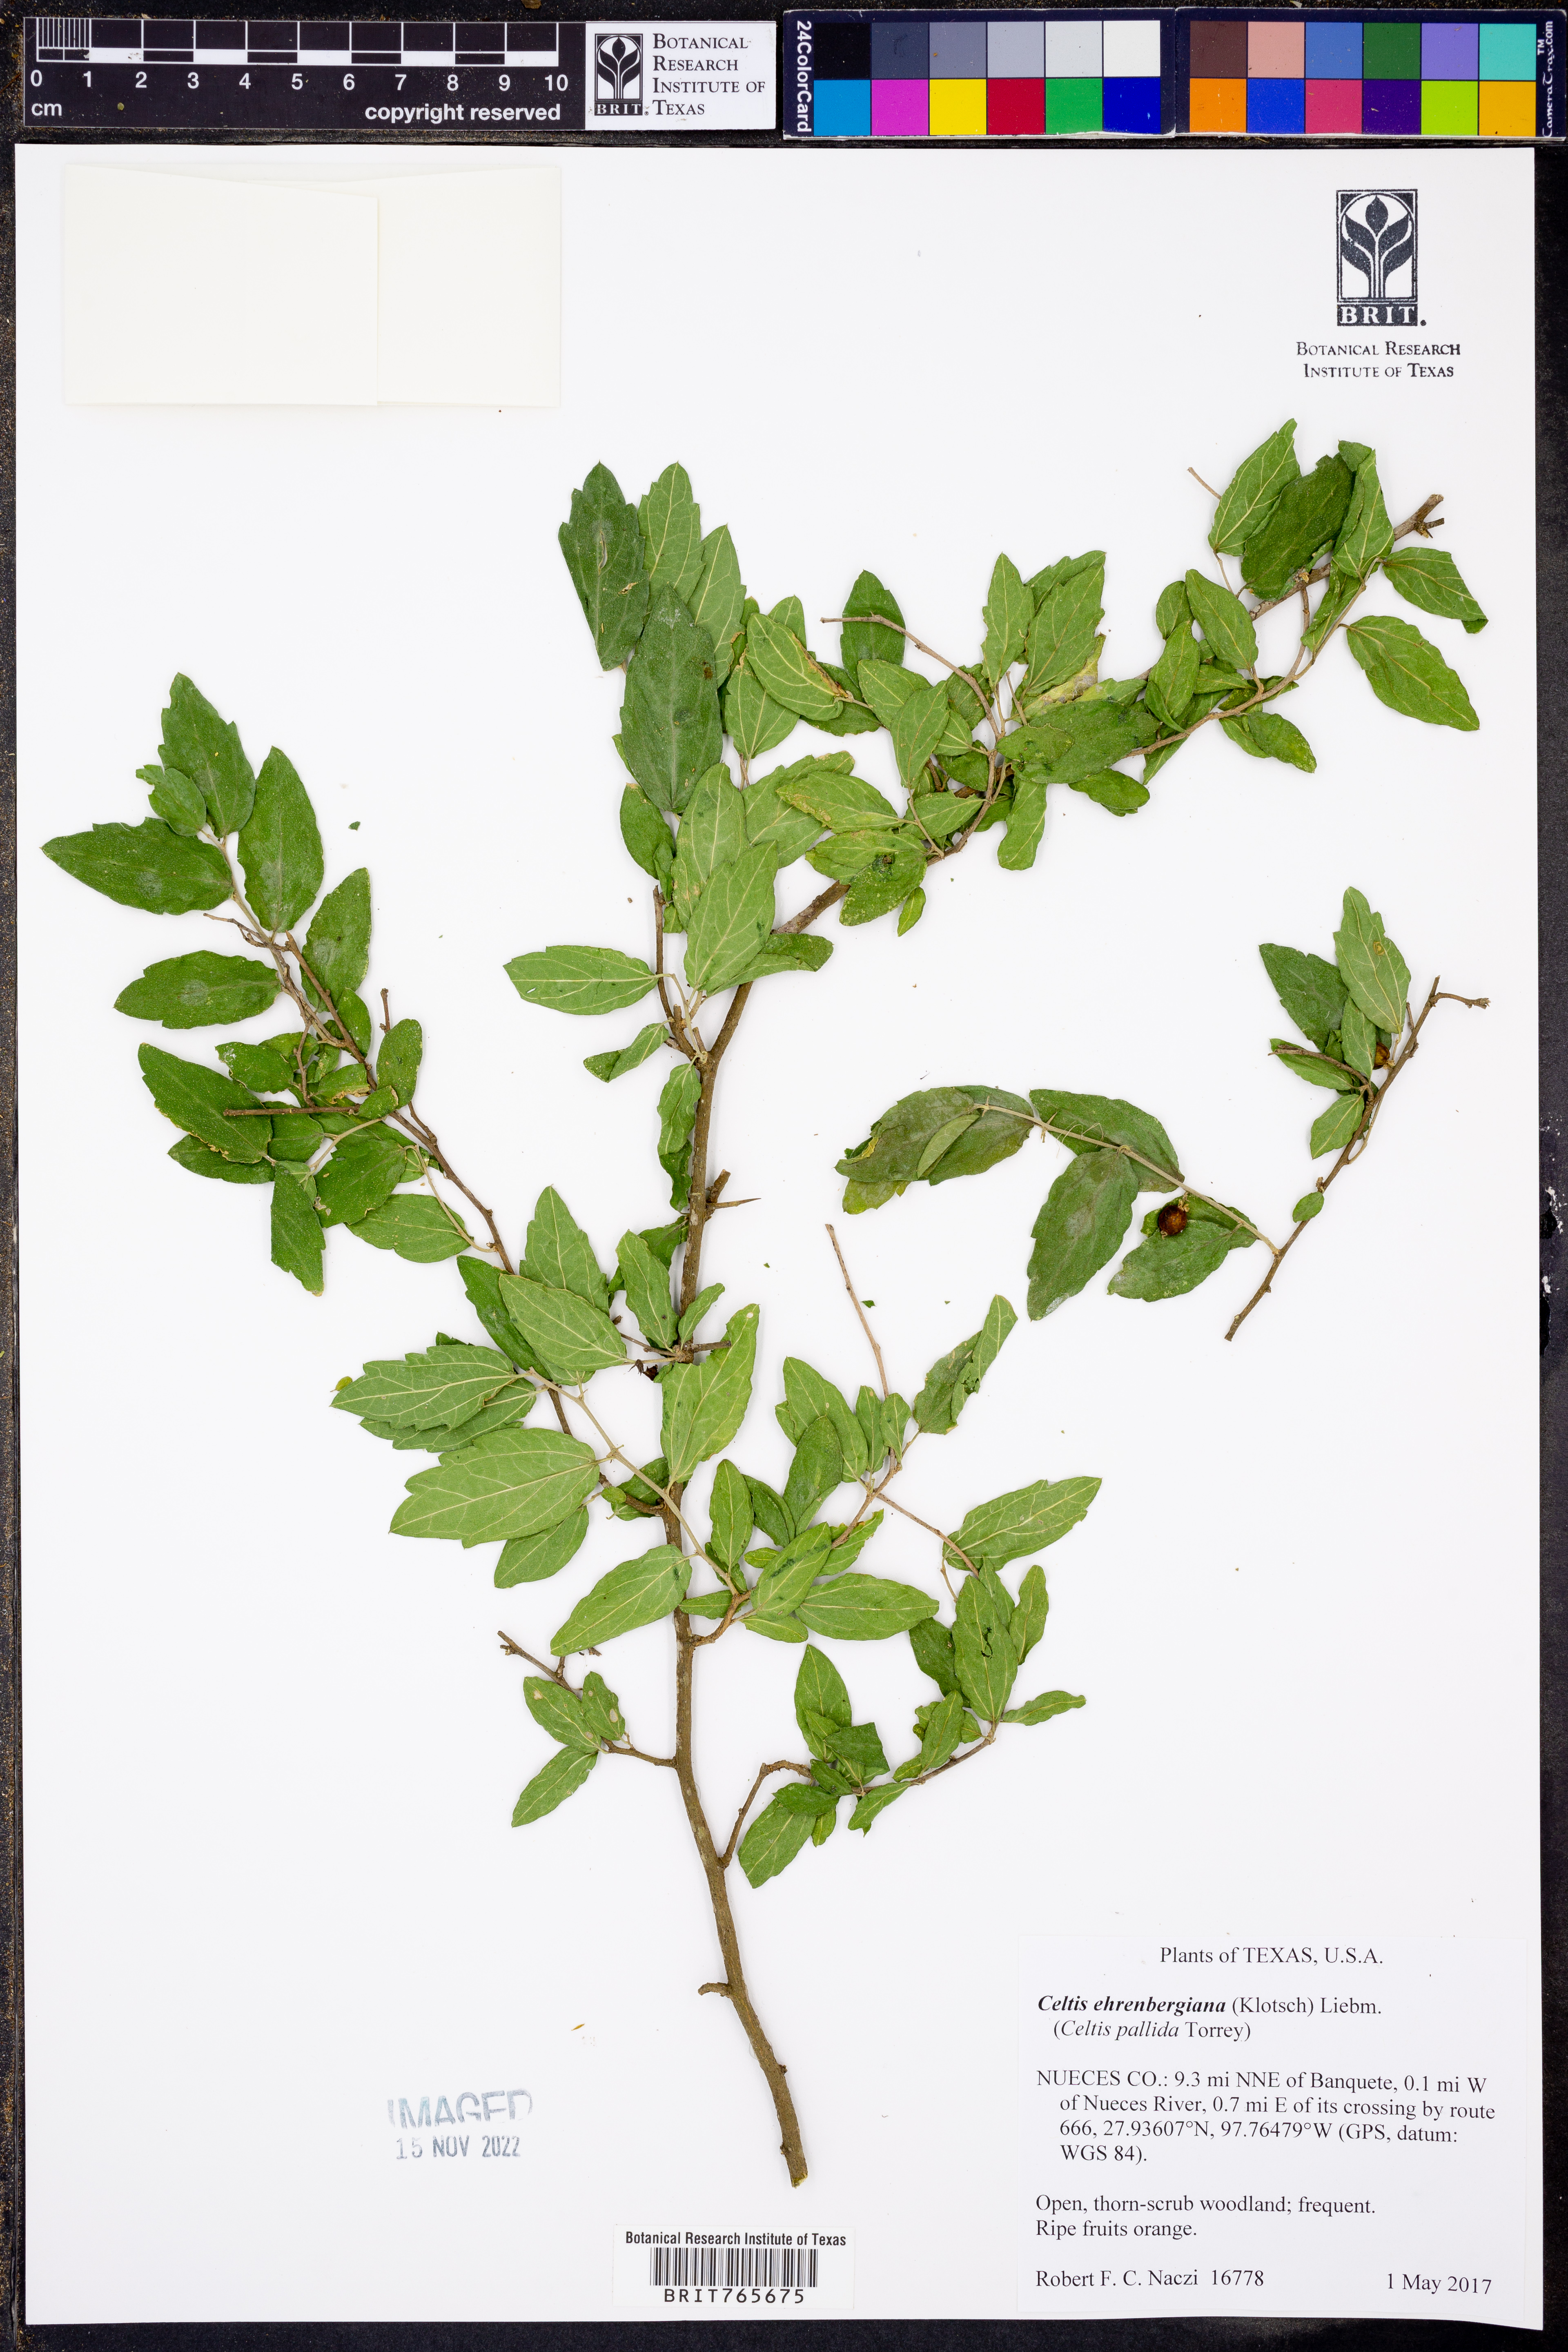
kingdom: Plantae
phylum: Tracheophyta
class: Magnoliopsida
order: Rosales
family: Cannabaceae
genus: Celtis
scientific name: Celtis iguanaea
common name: Iguana hackberry
